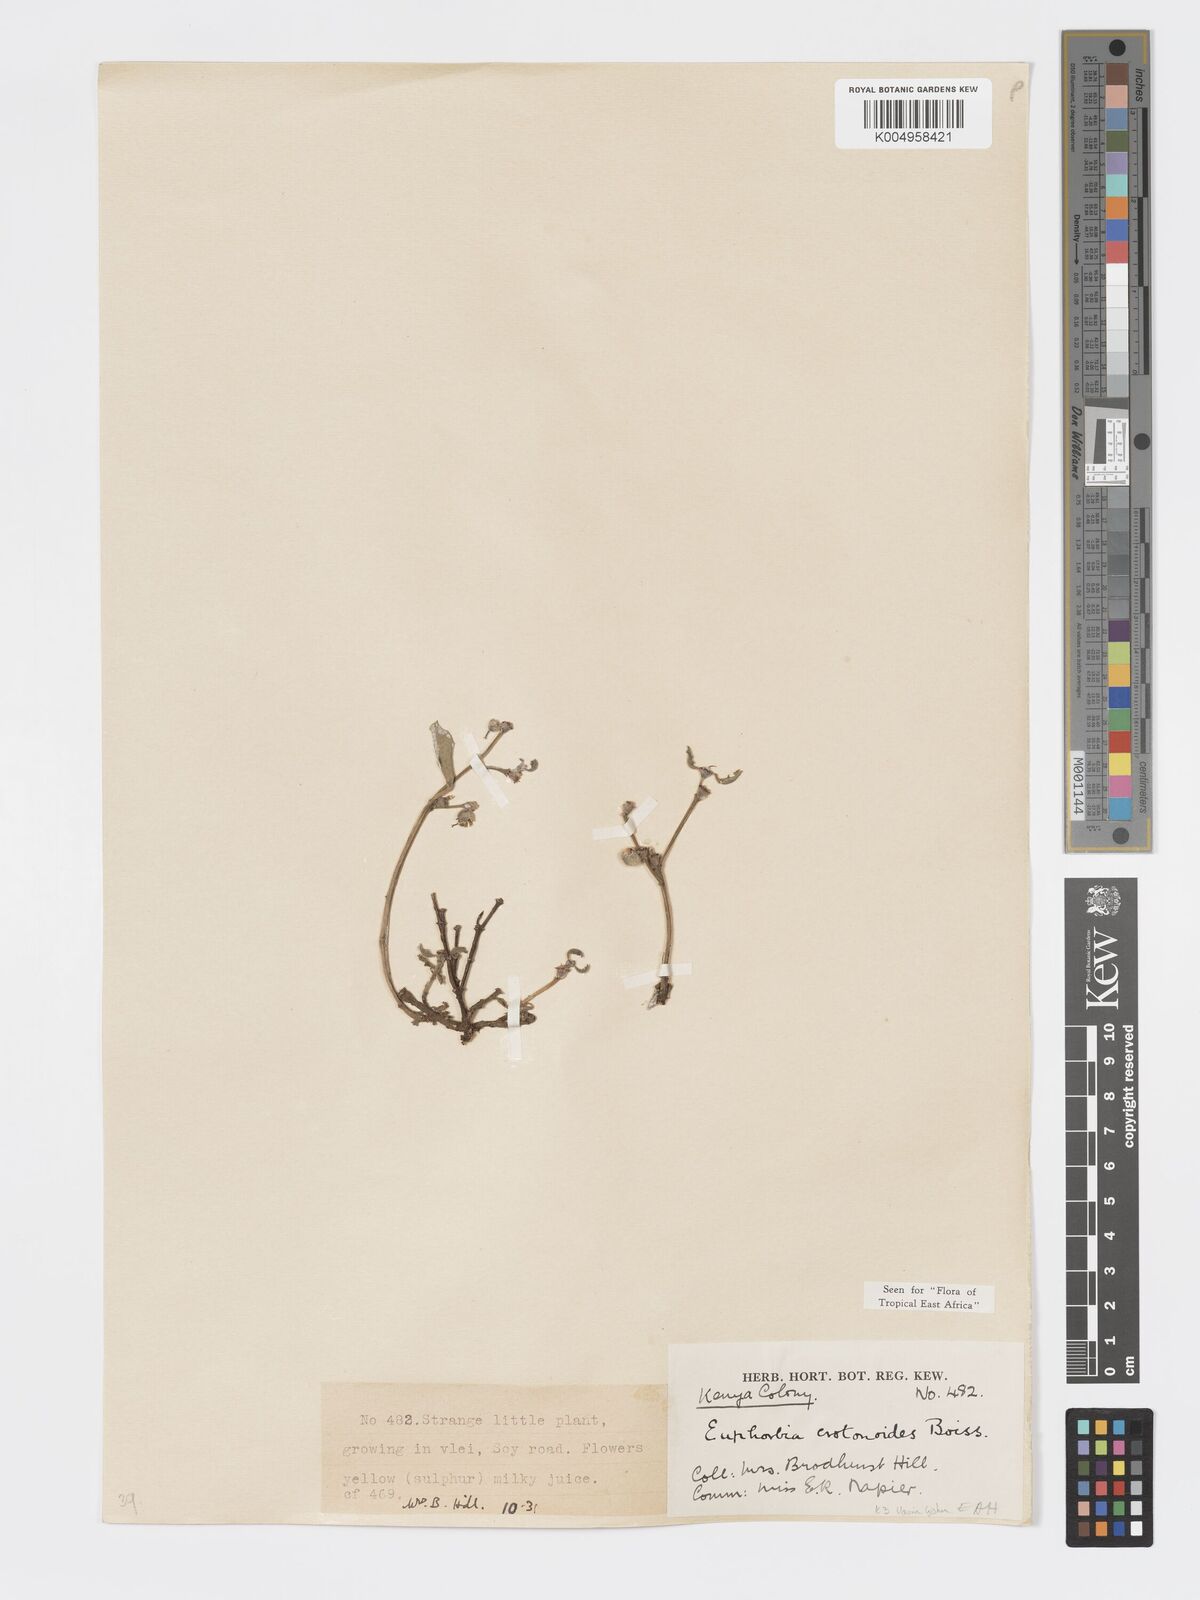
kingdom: Plantae
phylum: Tracheophyta
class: Magnoliopsida
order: Malpighiales
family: Euphorbiaceae
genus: Euphorbia
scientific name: Euphorbia crotonoides
